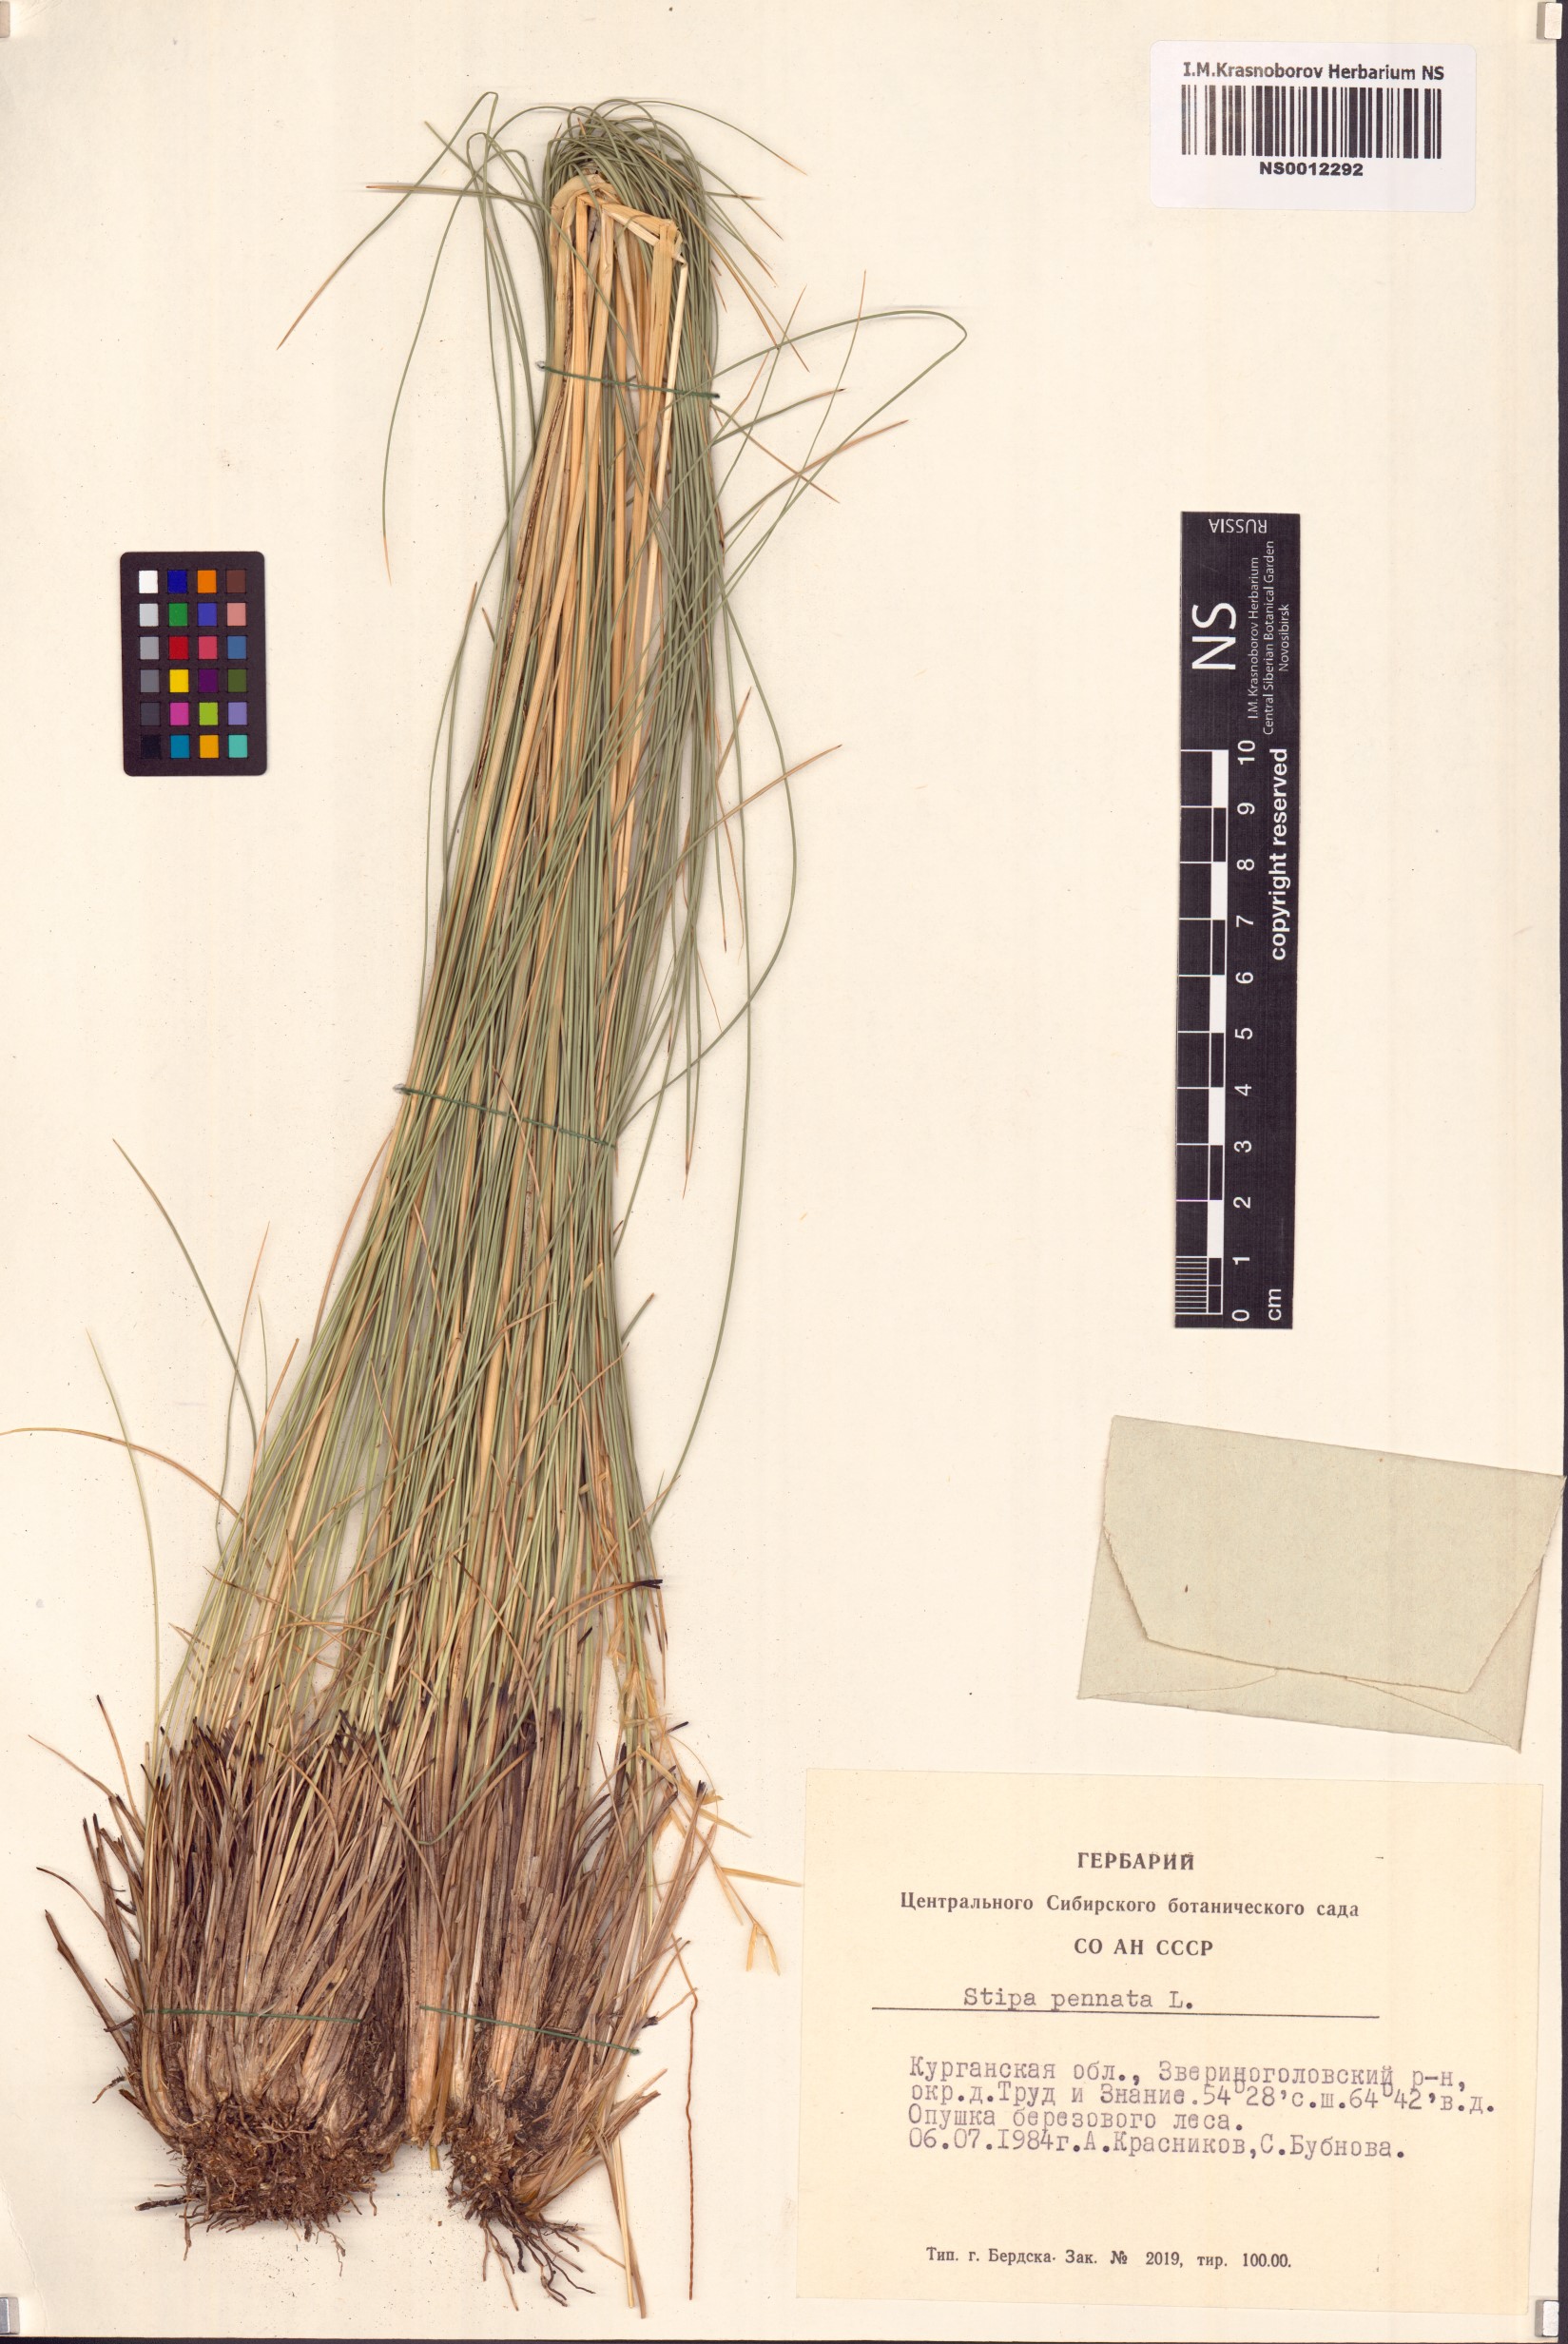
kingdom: Plantae
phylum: Tracheophyta
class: Liliopsida
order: Poales
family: Poaceae
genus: Stipa
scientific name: Stipa pennata
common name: European feather grass
